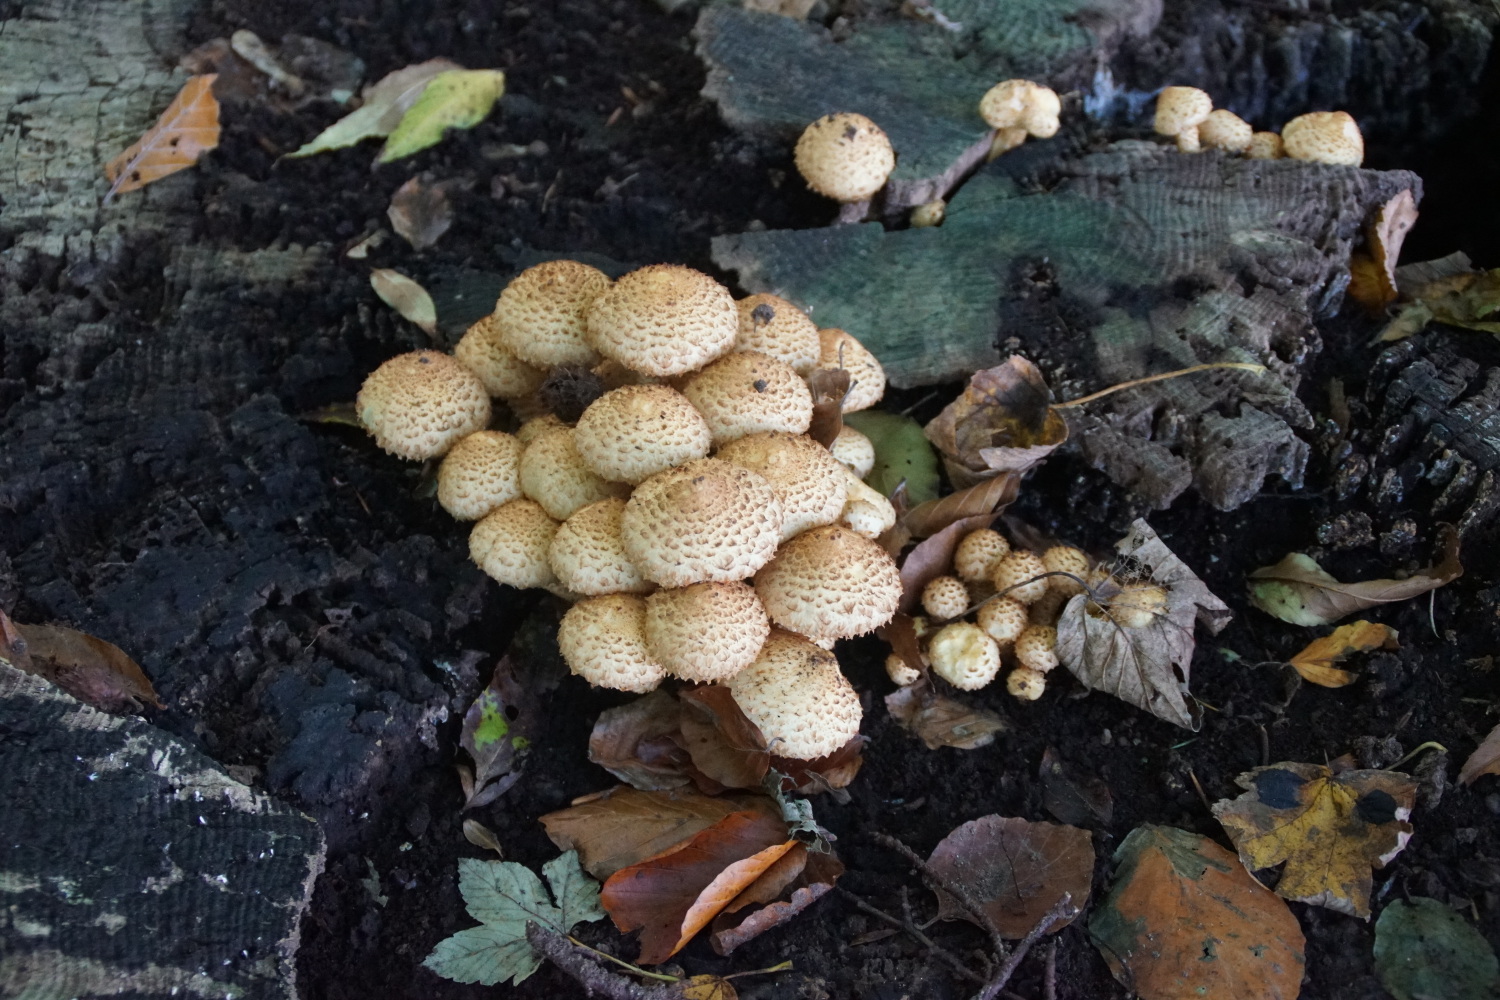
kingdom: Fungi
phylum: Basidiomycota
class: Agaricomycetes
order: Agaricales
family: Strophariaceae
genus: Pholiota
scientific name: Pholiota squarrosa
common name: krumskællet skælhat
